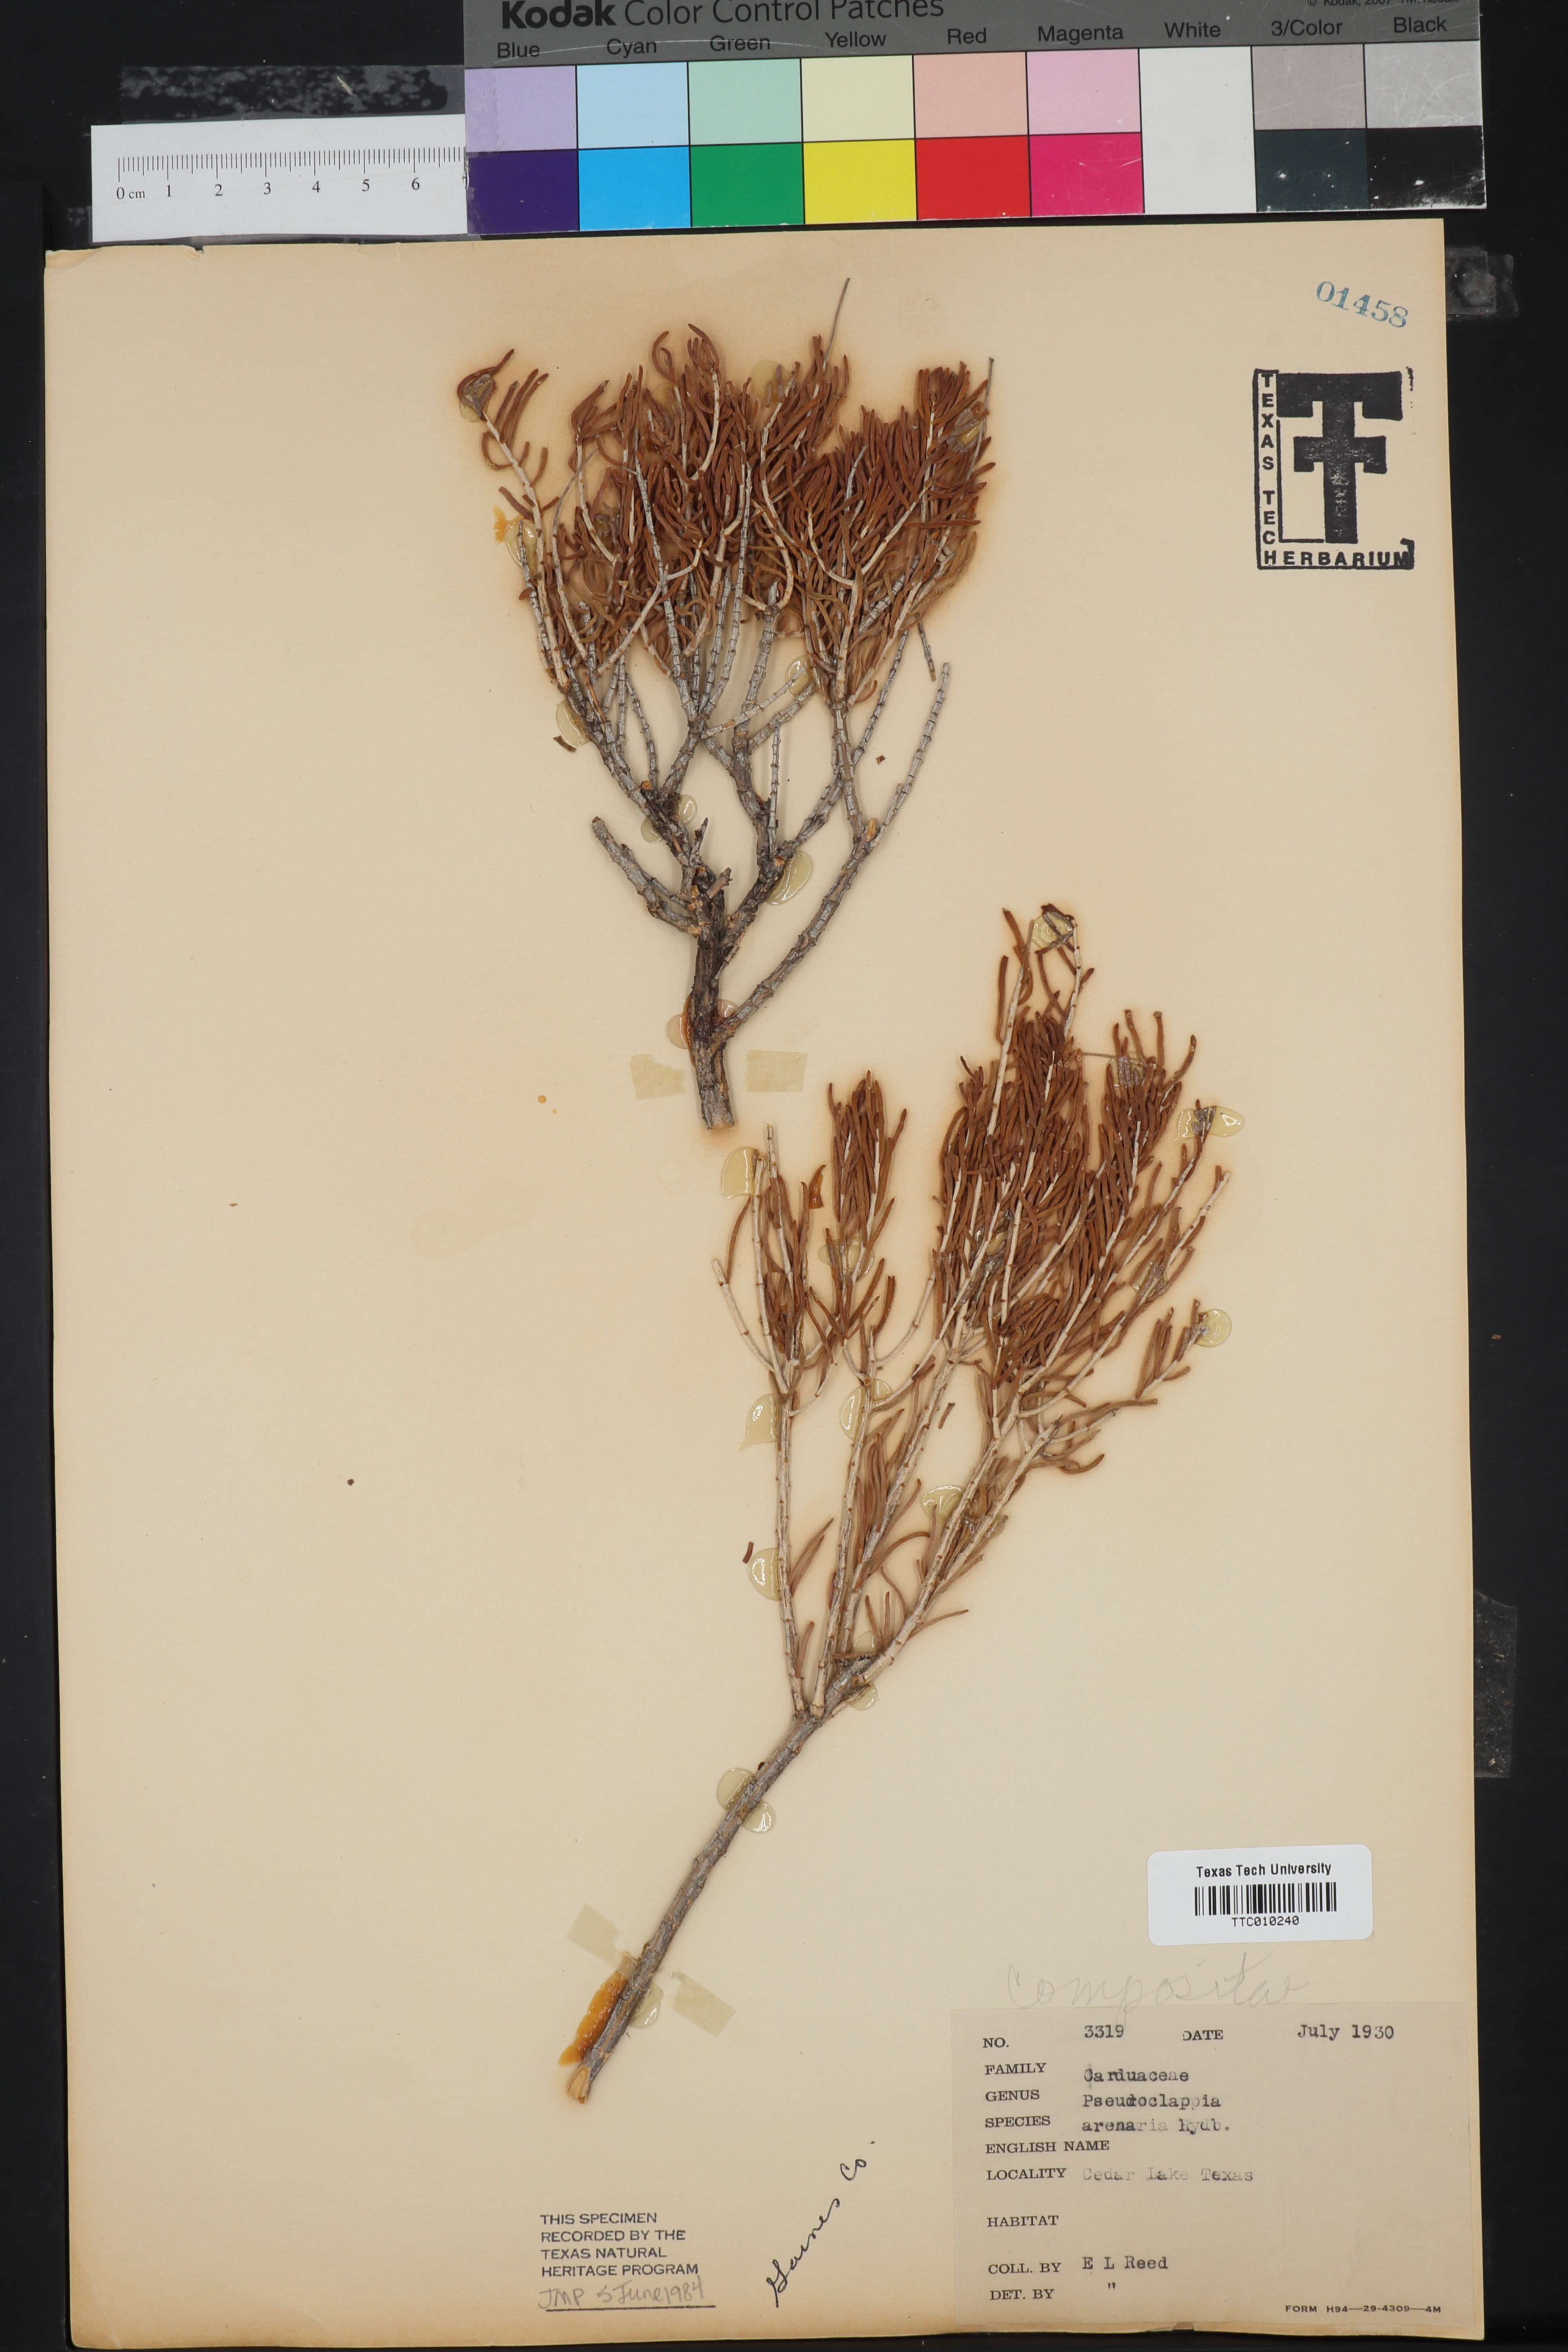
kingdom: Plantae
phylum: Tracheophyta
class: Magnoliopsida
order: Asterales
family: Asteraceae
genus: Pseudoclappia
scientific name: Pseudoclappia arenaria
